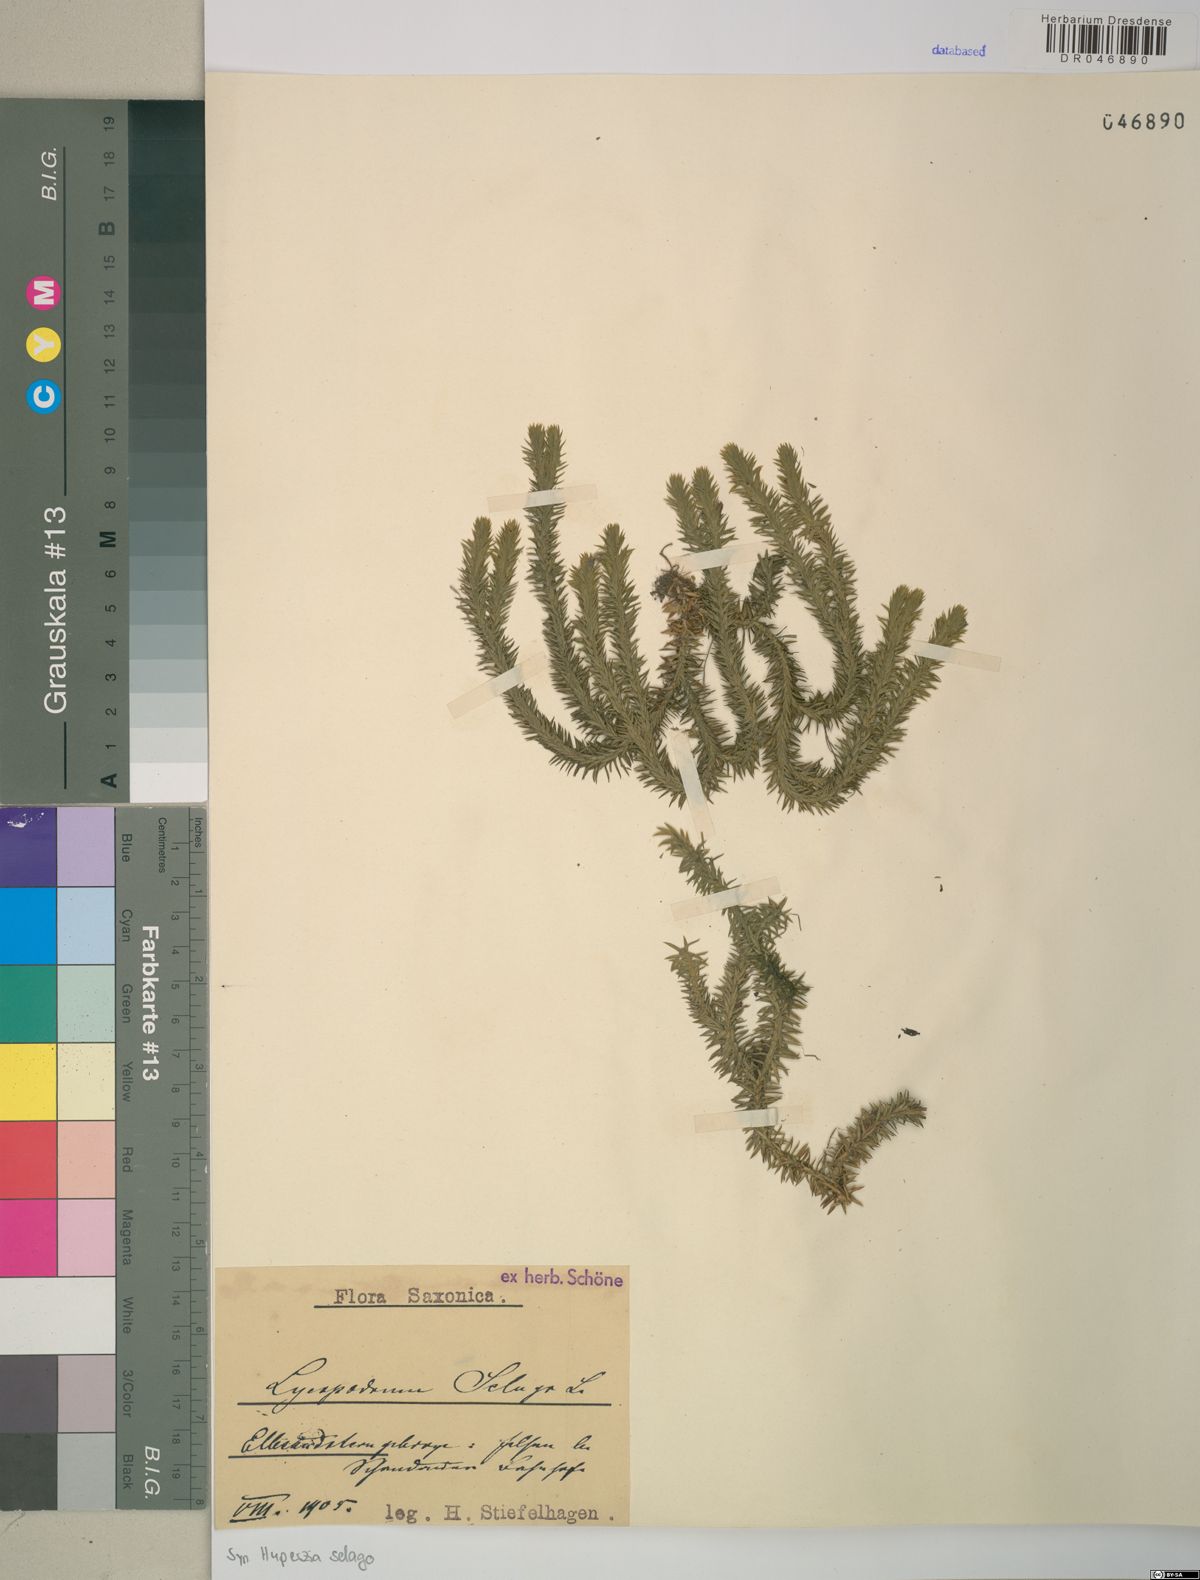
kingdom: Plantae
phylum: Tracheophyta
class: Lycopodiopsida
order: Lycopodiales
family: Lycopodiaceae
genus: Huperzia
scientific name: Huperzia selago
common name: Northern firmoss
